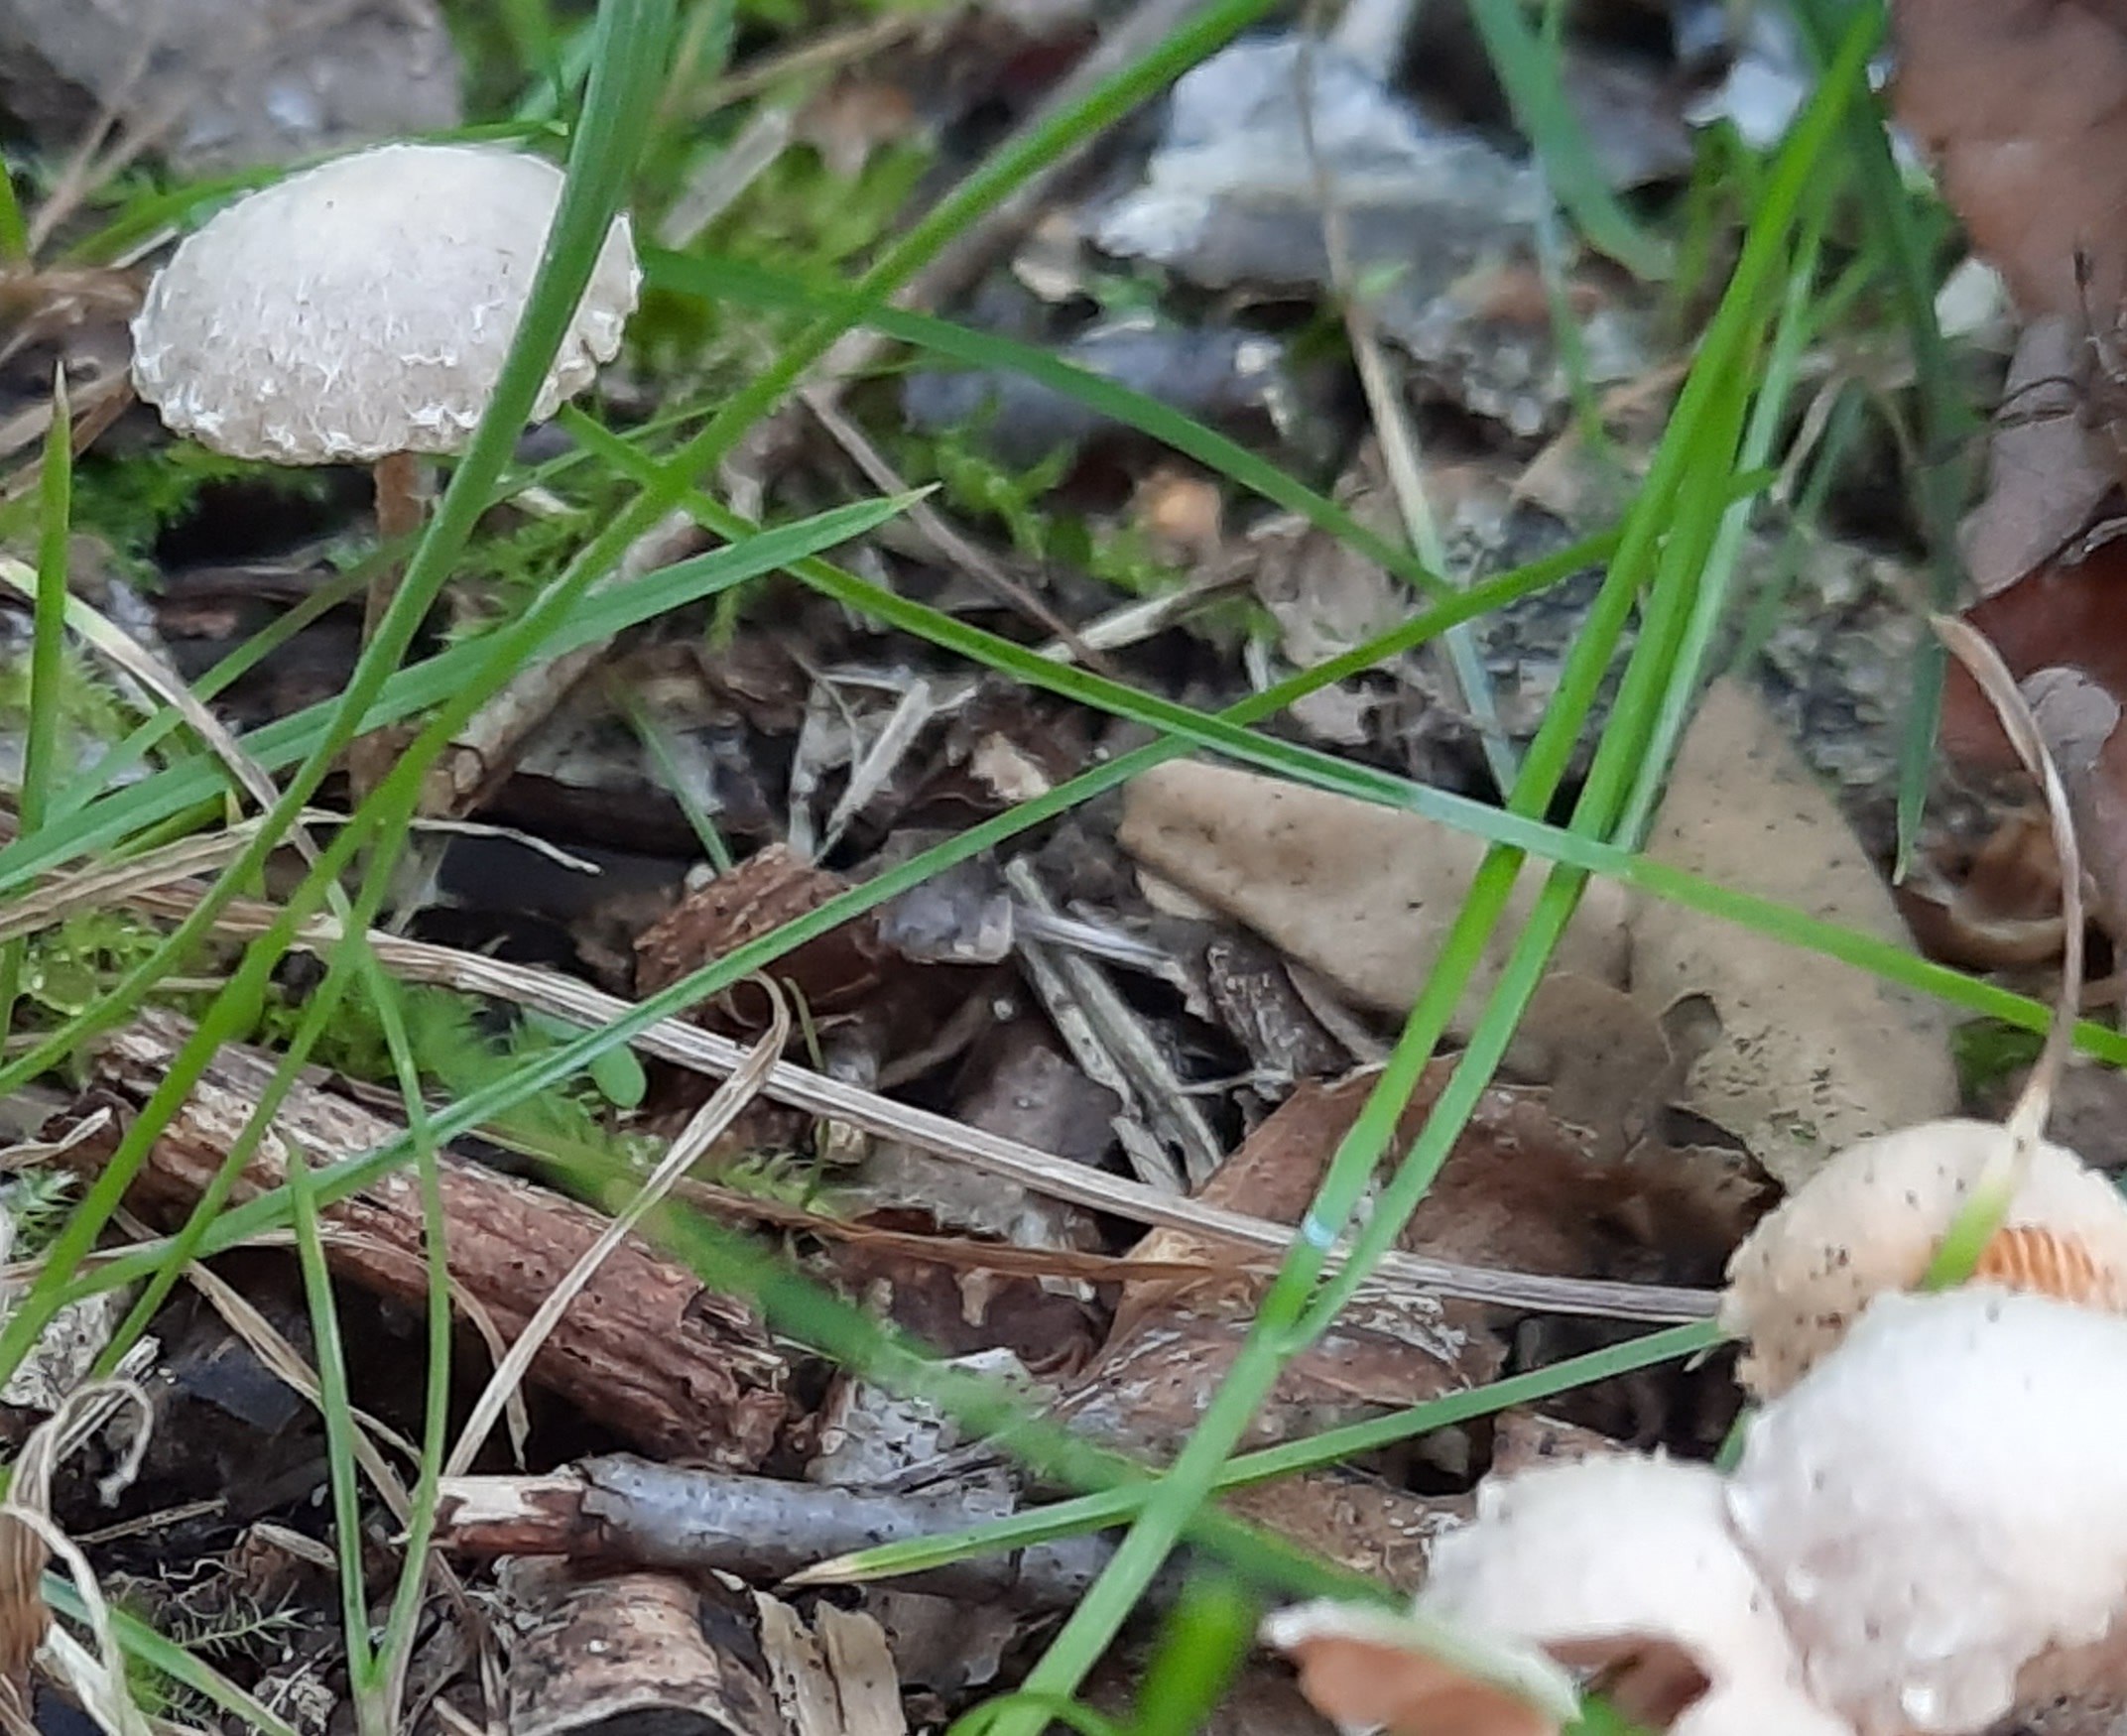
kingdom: Fungi
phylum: Basidiomycota
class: Agaricomycetes
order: Agaricales
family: Tubariaceae
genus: Tubaria
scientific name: Tubaria conspersa
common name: bleg fnughat
